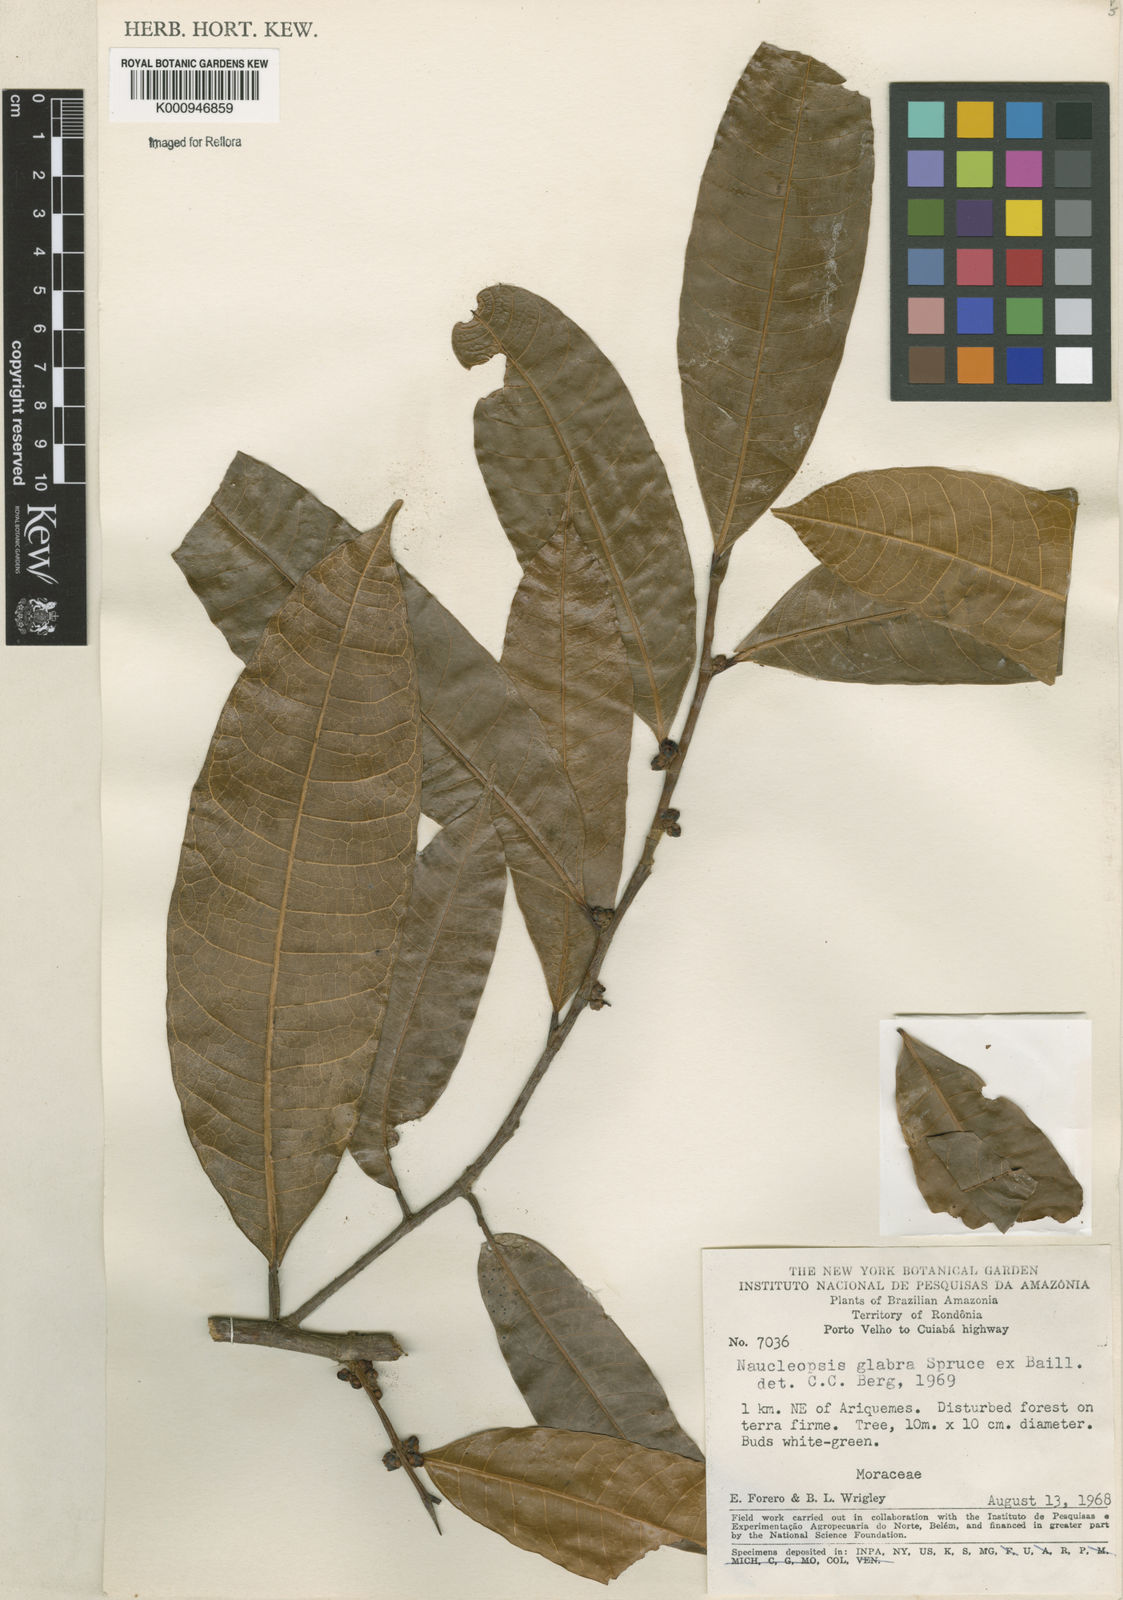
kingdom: Plantae
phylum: Tracheophyta
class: Magnoliopsida
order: Rosales
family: Moraceae
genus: Naucleopsis
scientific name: Naucleopsis glabra
